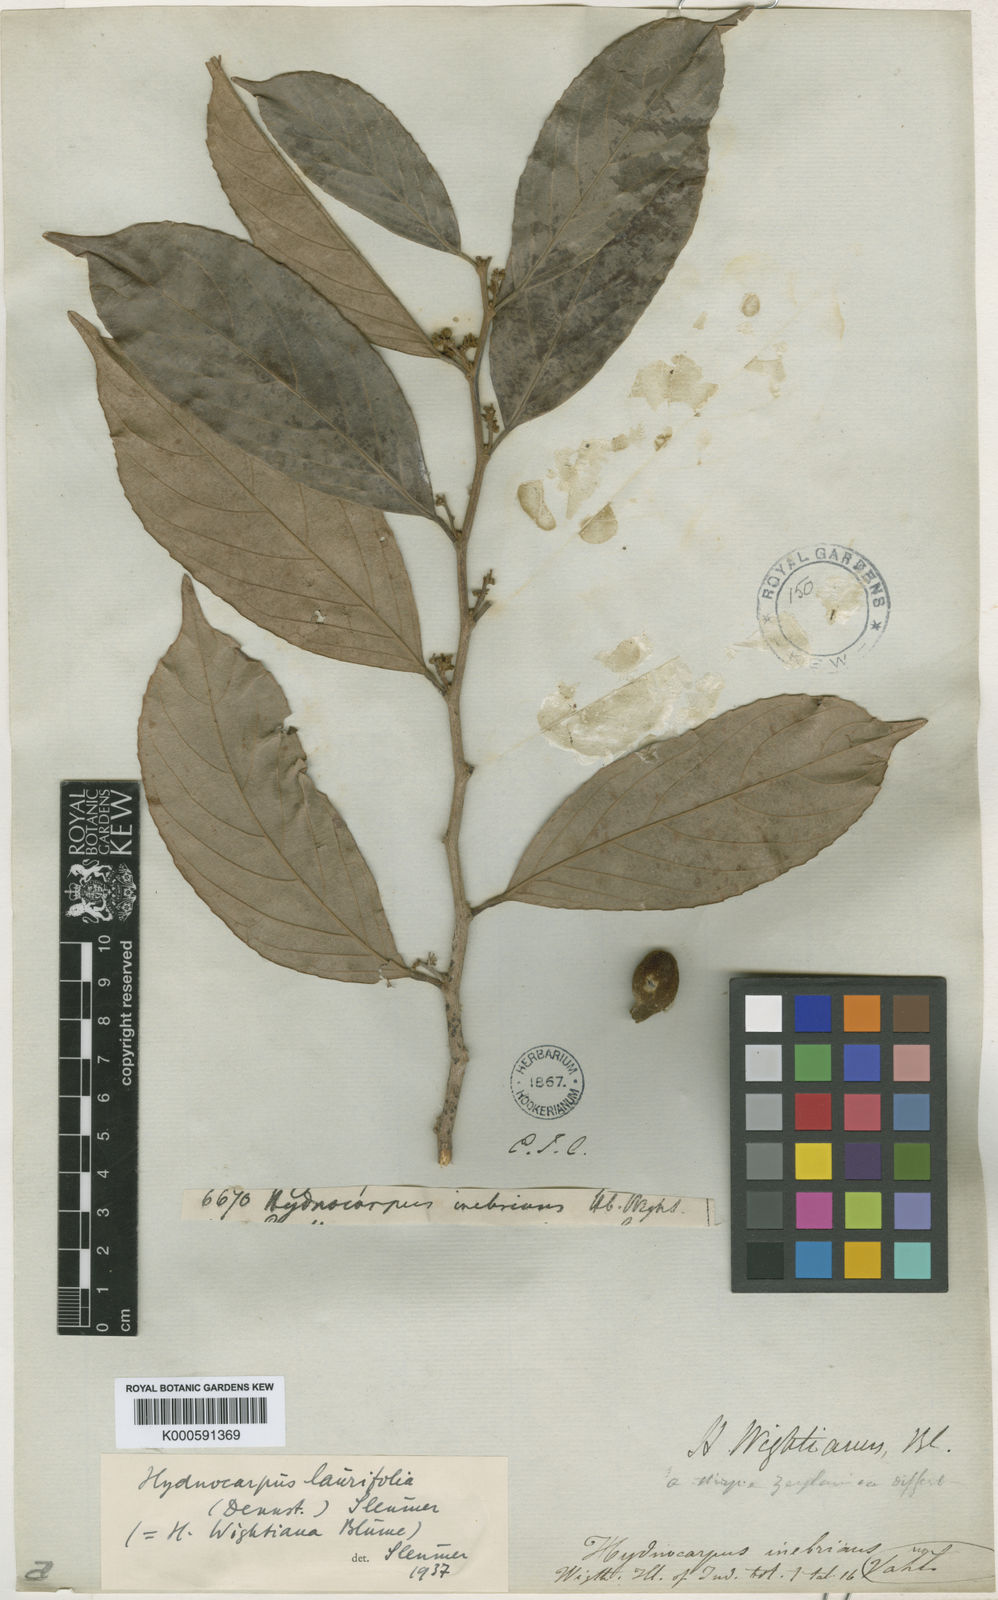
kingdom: Plantae
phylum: Tracheophyta
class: Magnoliopsida
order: Malpighiales
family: Achariaceae
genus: Hydnocarpus
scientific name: Hydnocarpus pentandrus
